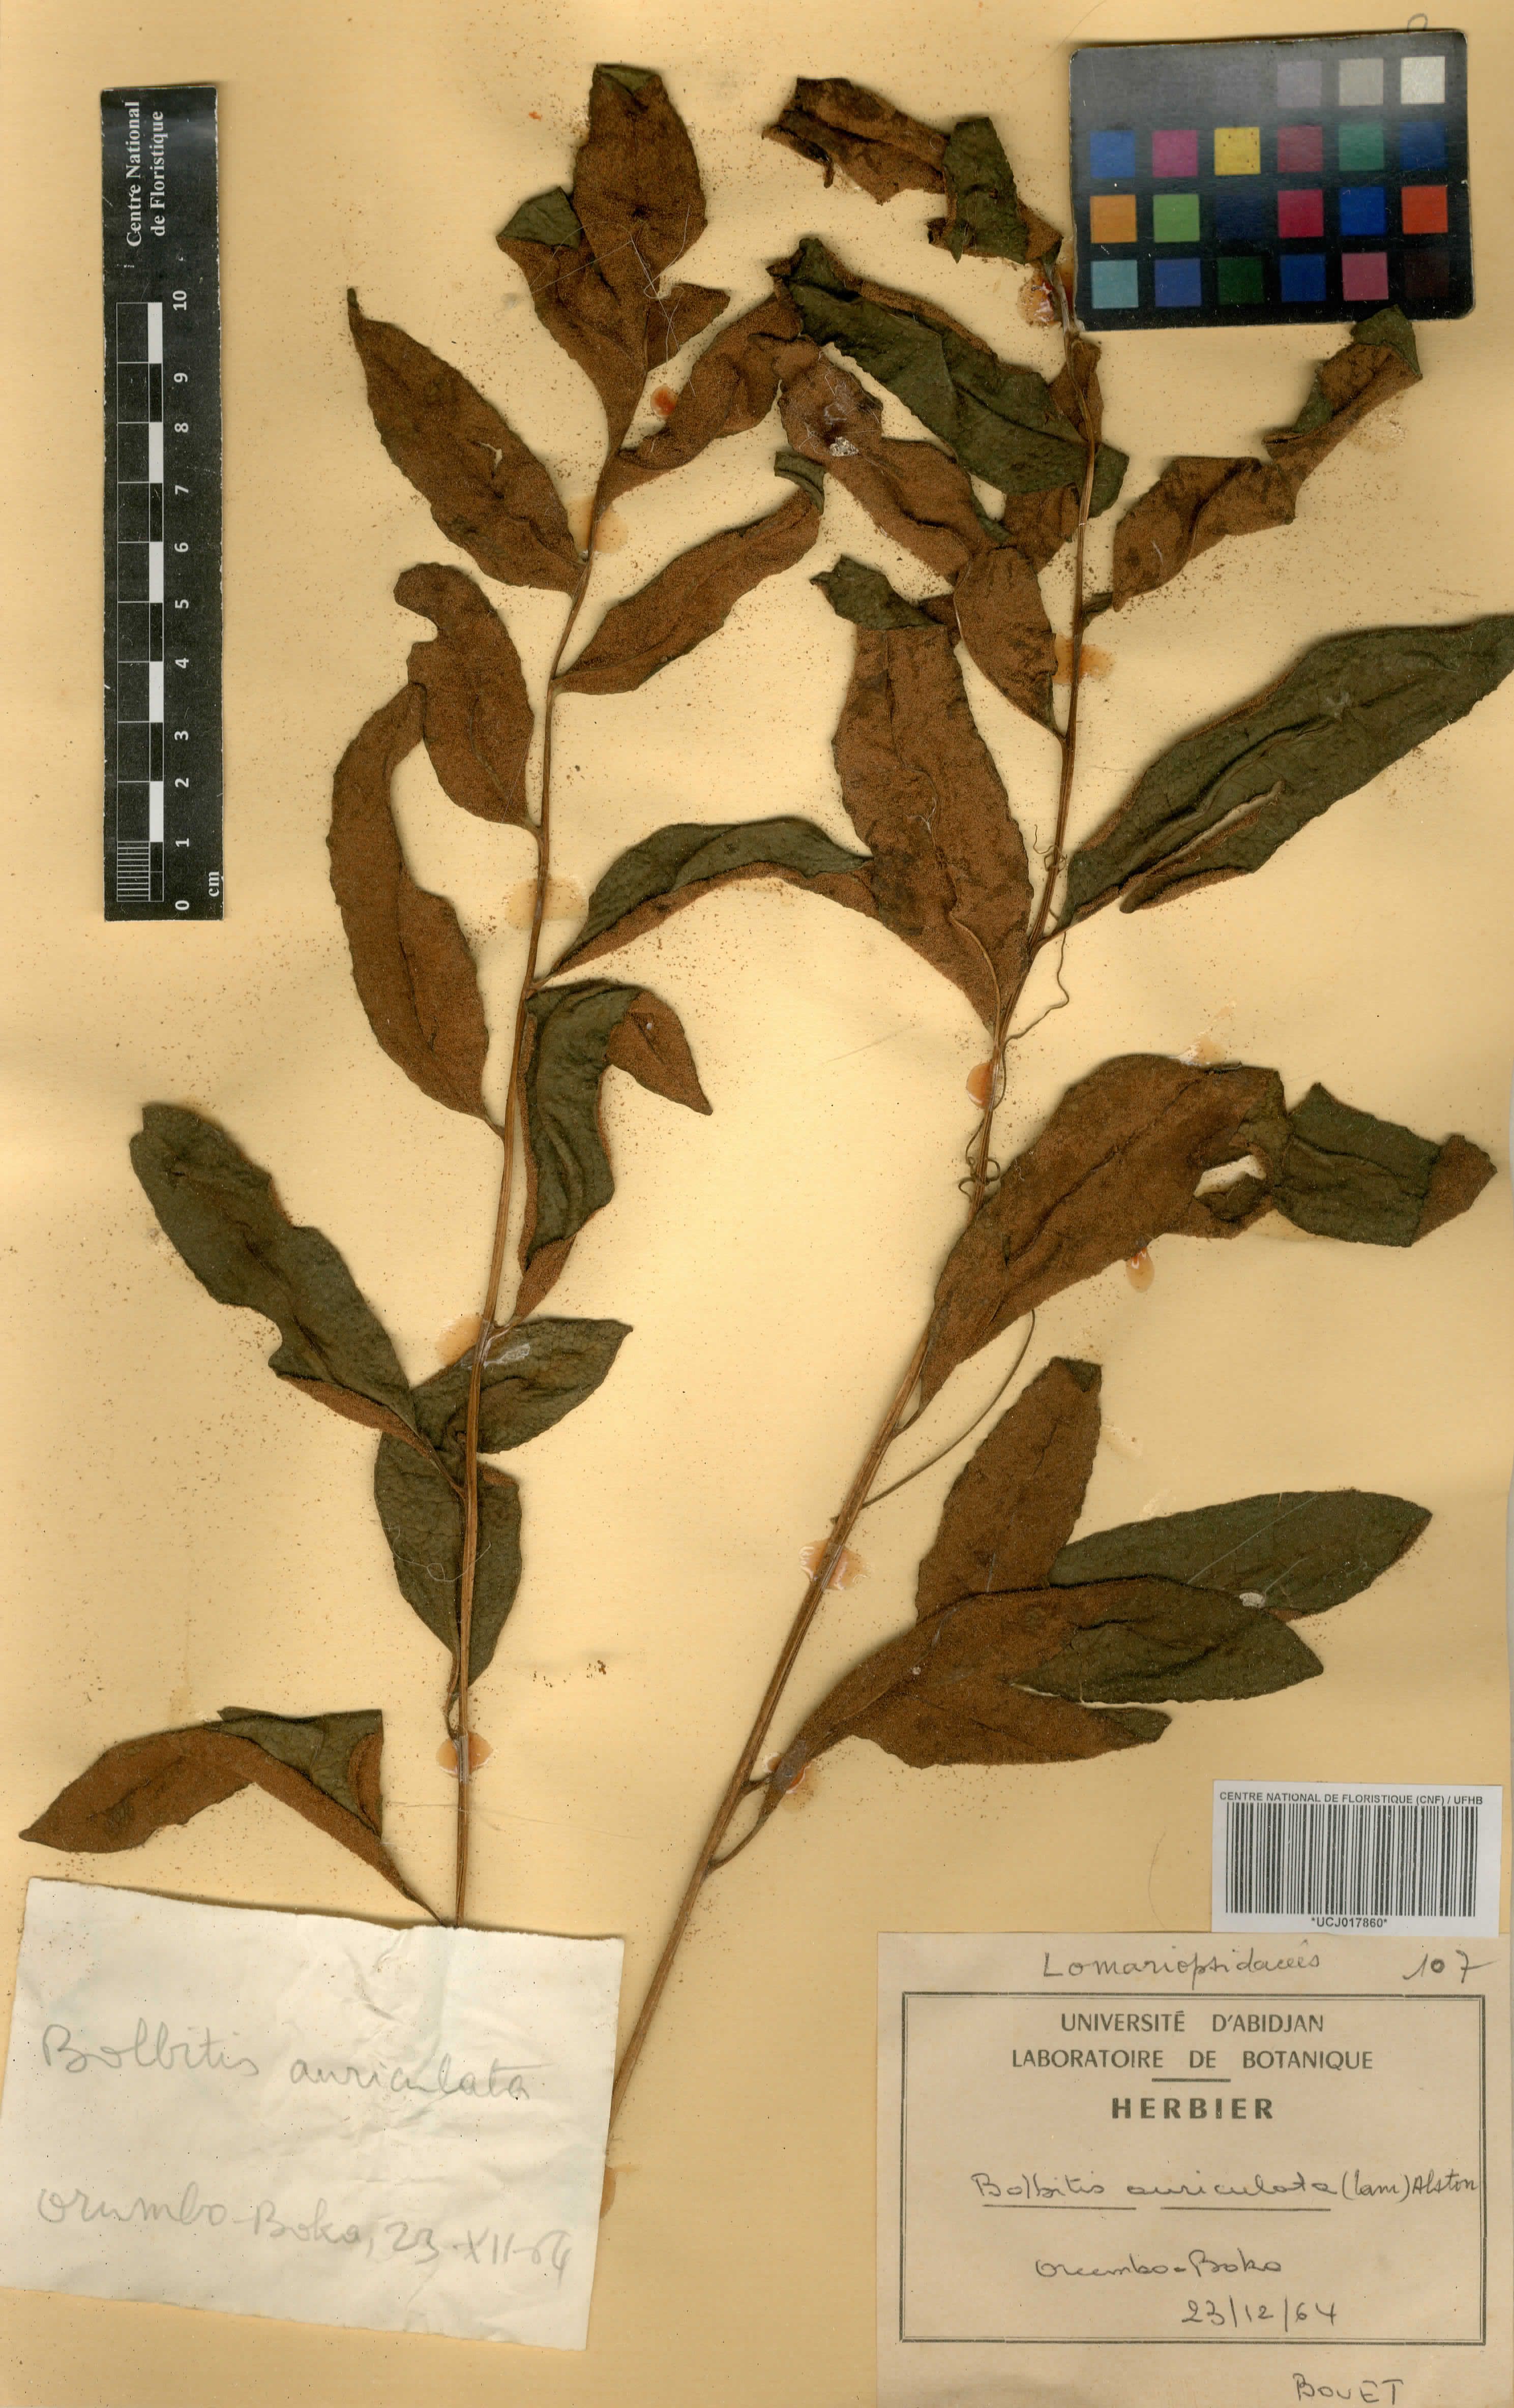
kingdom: Plantae
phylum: Tracheophyta
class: Polypodiopsida
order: Polypodiales
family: Dryopteridaceae
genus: Bolbitis
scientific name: Bolbitis auriculata
